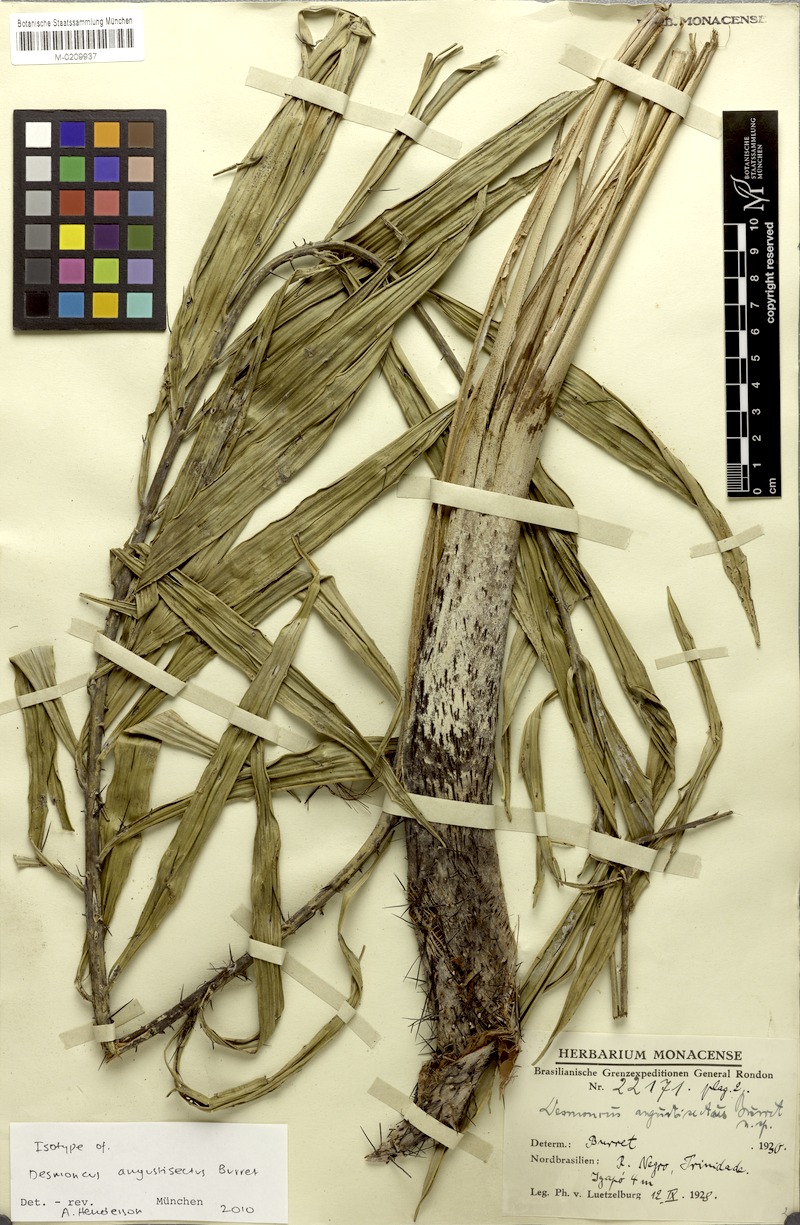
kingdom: Plantae
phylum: Tracheophyta
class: Liliopsida
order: Arecales
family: Arecaceae
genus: Desmoncus
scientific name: Desmoncus orthacanthos
